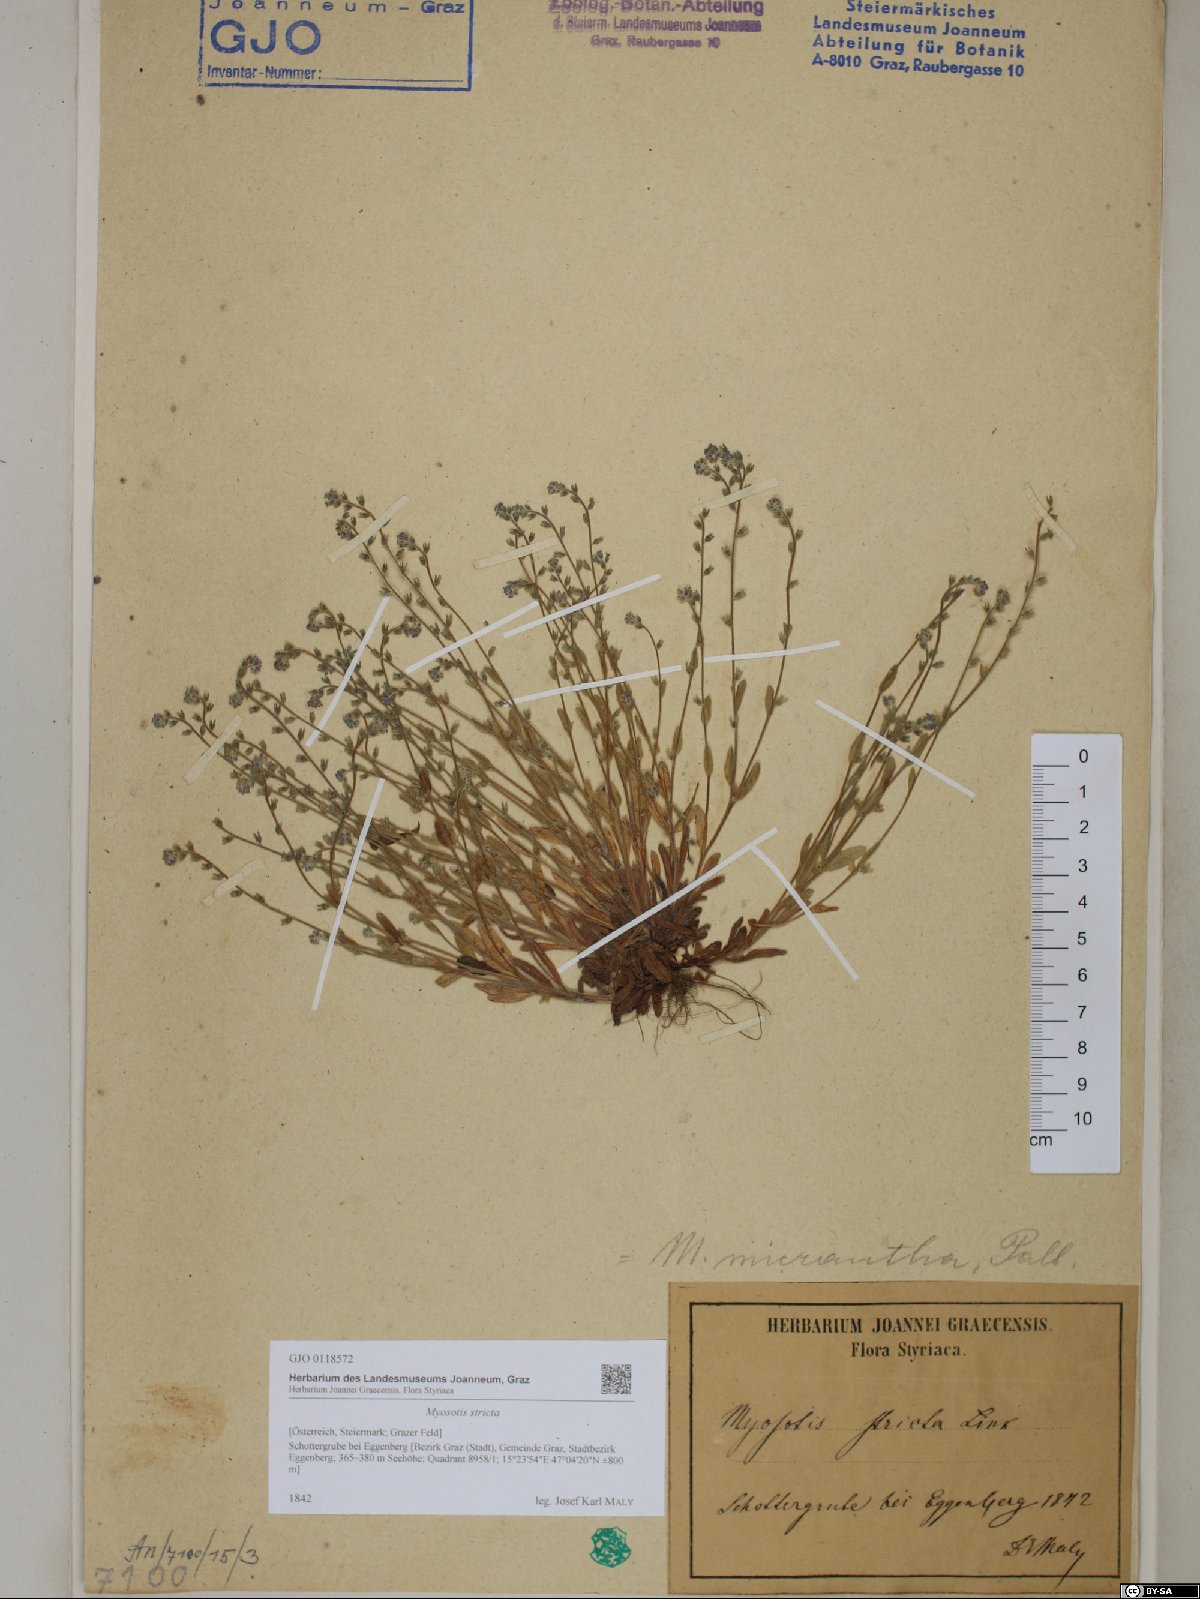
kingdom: Plantae
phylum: Tracheophyta
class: Magnoliopsida
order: Boraginales
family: Boraginaceae
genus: Myosotis
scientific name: Myosotis stricta
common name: Strict forget-me-not
